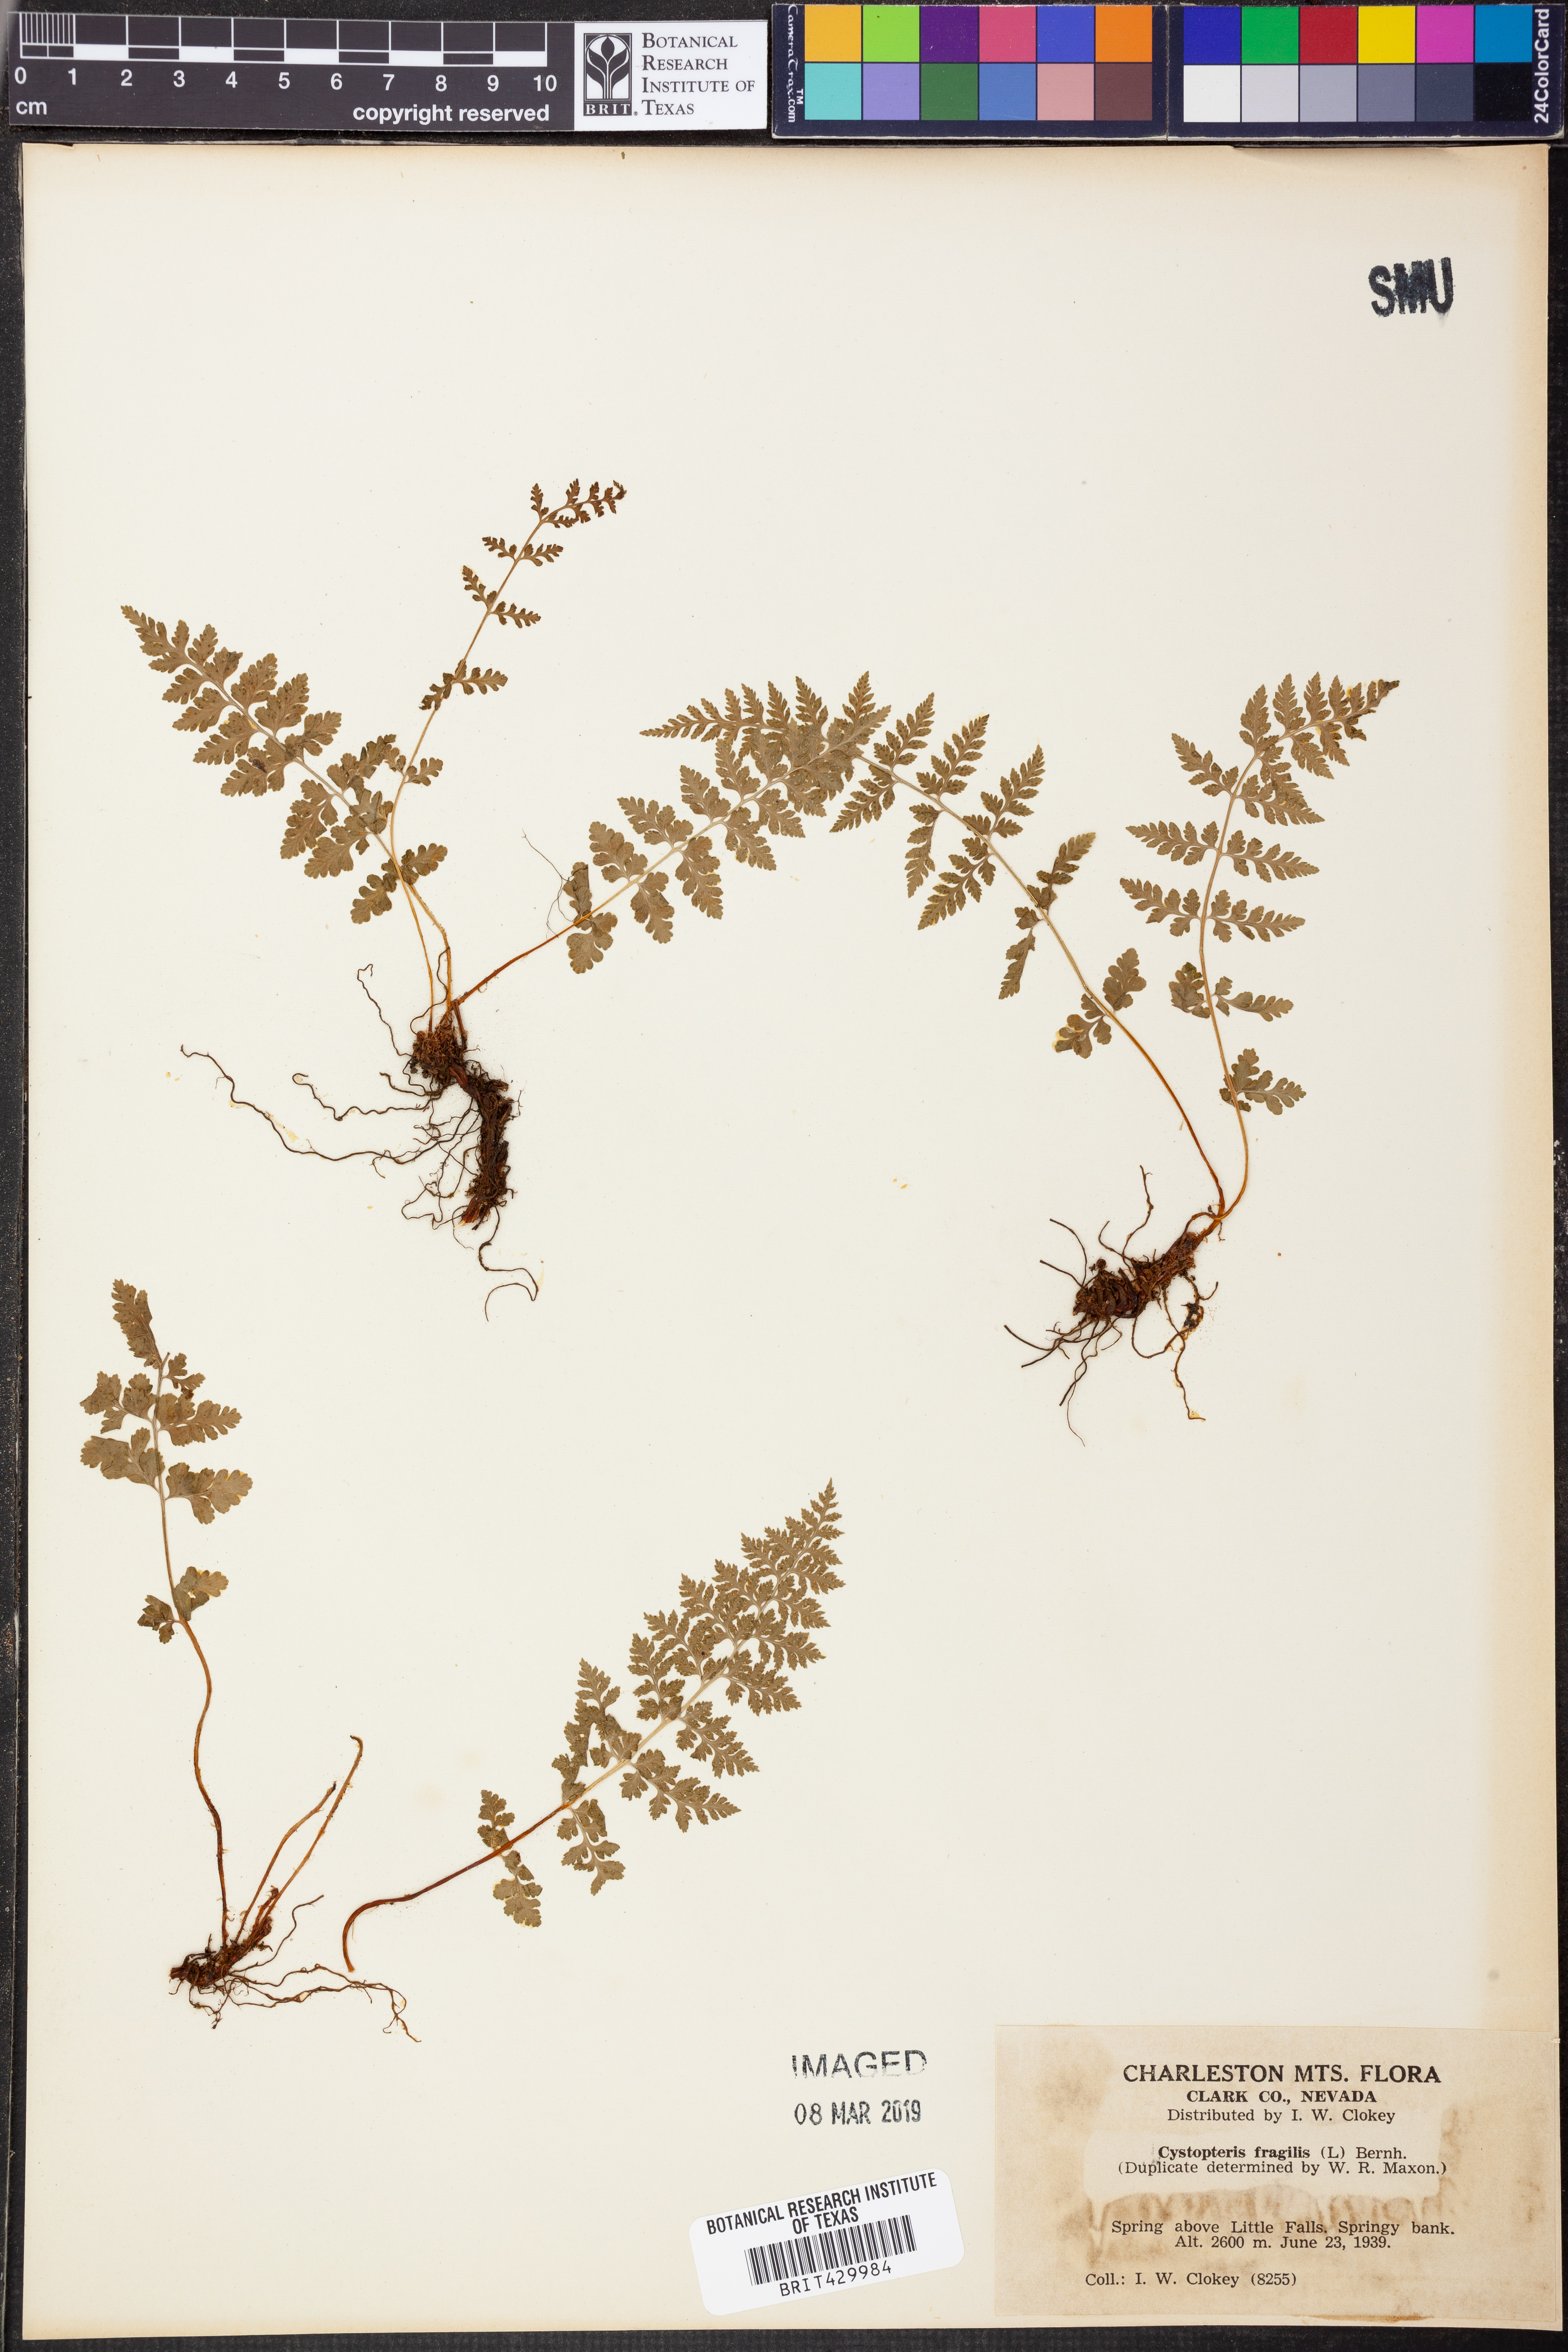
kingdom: Plantae
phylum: Tracheophyta
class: Polypodiopsida
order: Polypodiales
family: Cystopteridaceae
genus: Cystopteris
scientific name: Cystopteris fragilis
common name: Brittle bladder fern
